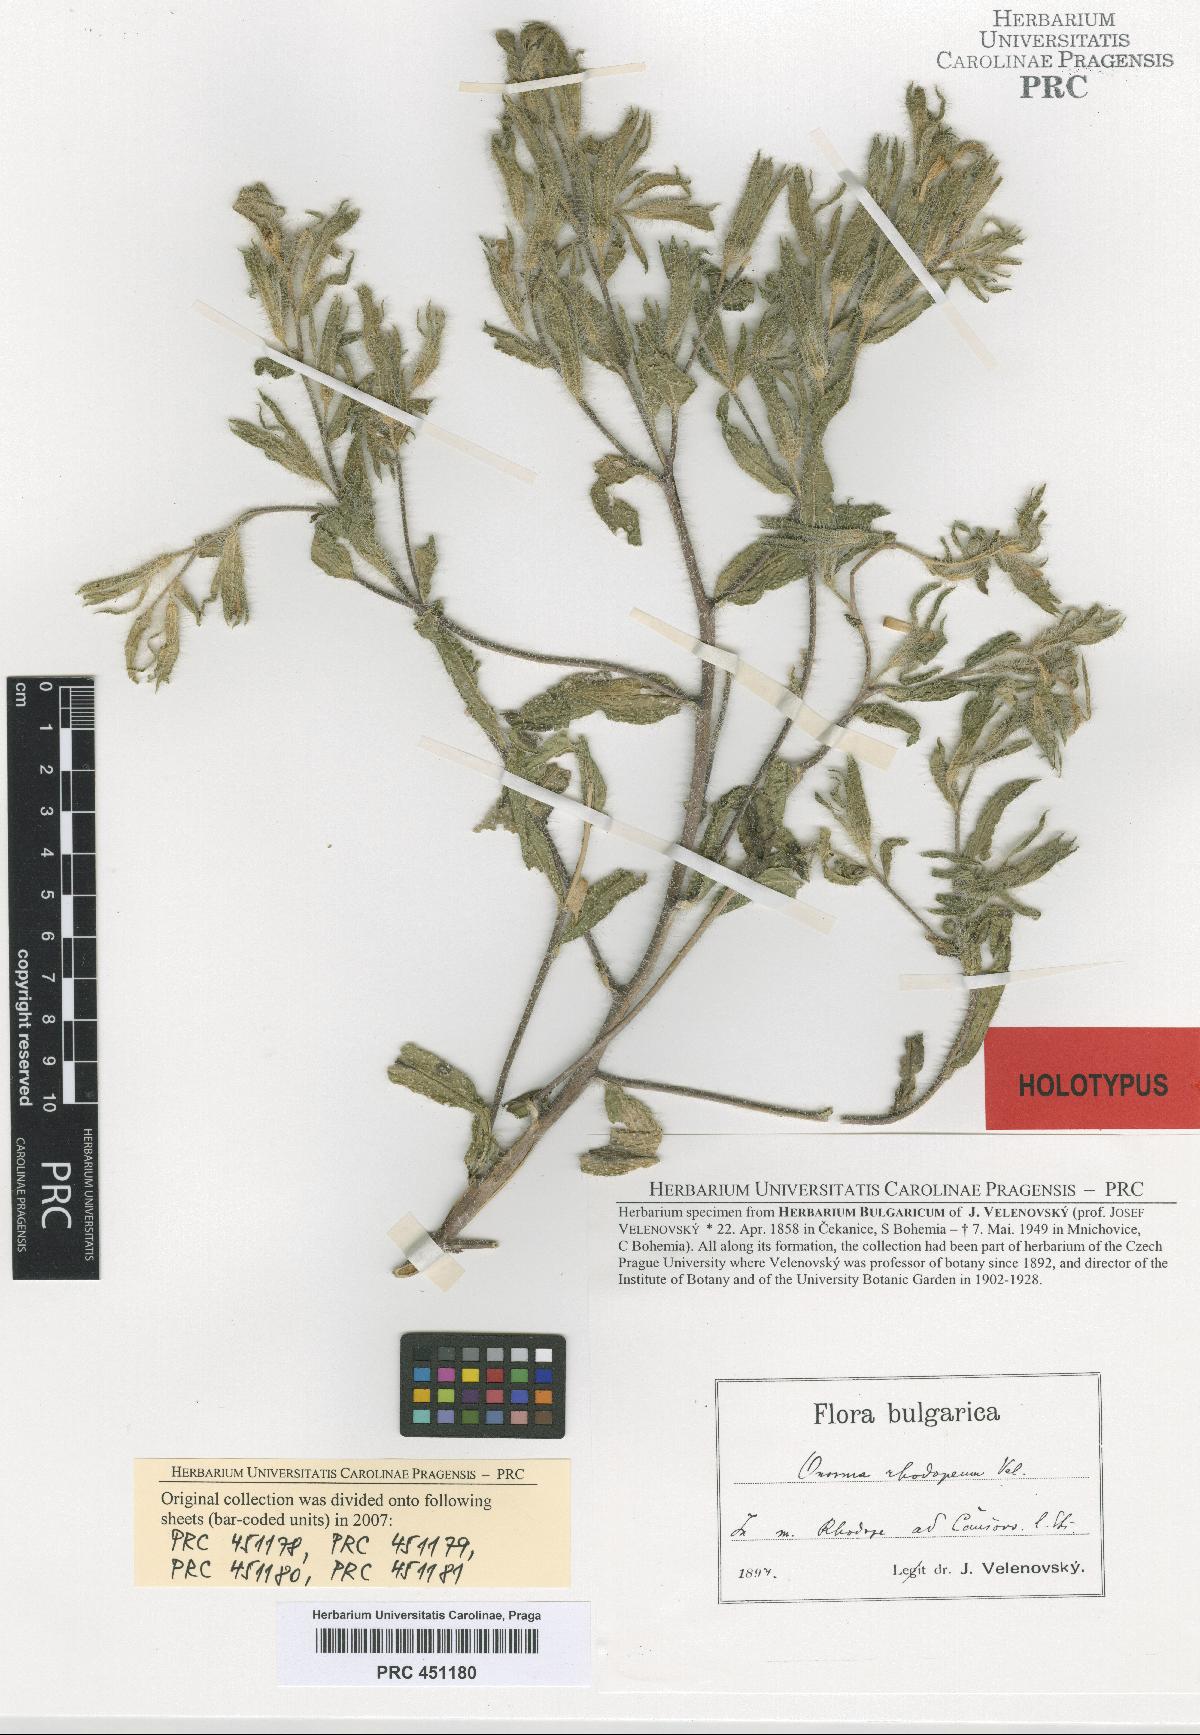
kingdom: Plantae
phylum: Tracheophyta
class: Magnoliopsida
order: Boraginales
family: Boraginaceae
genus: Onosma
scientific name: Onosma visianii
